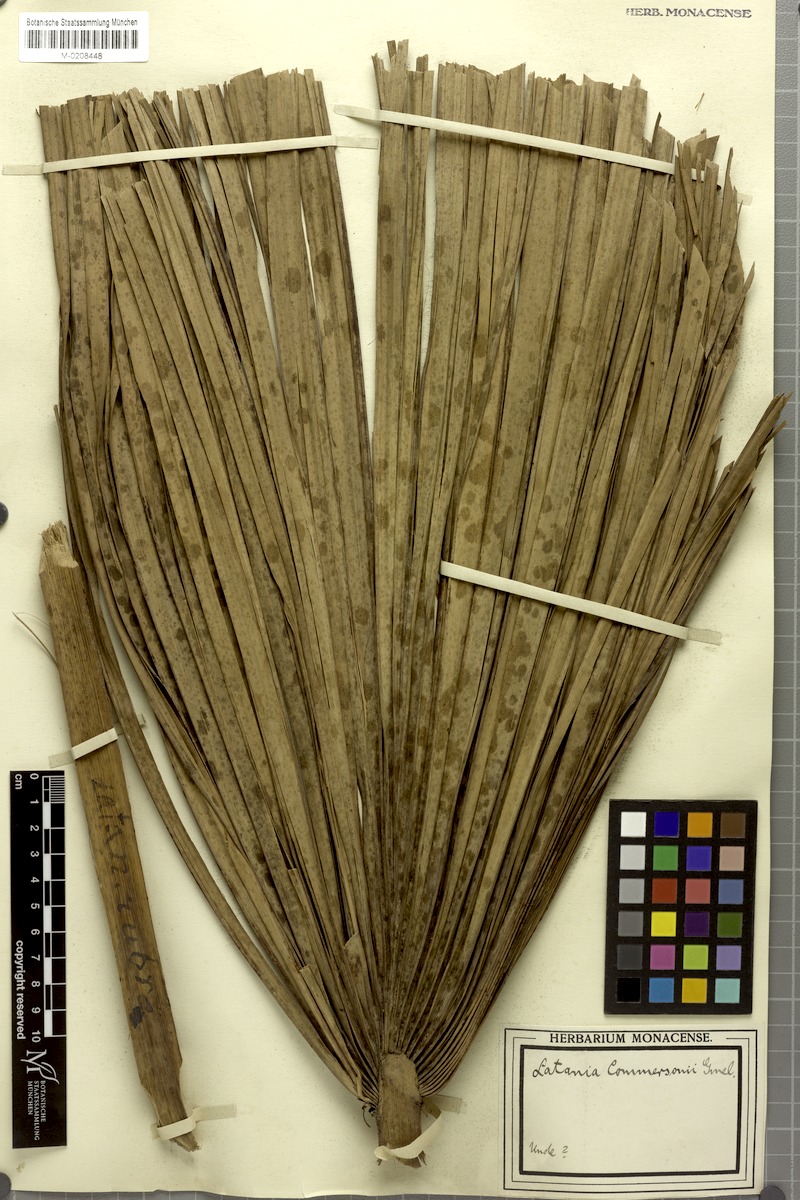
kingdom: Plantae
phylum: Tracheophyta
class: Liliopsida
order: Arecales
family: Arecaceae
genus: Latania
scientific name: Latania lontaroides
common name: Red latan
